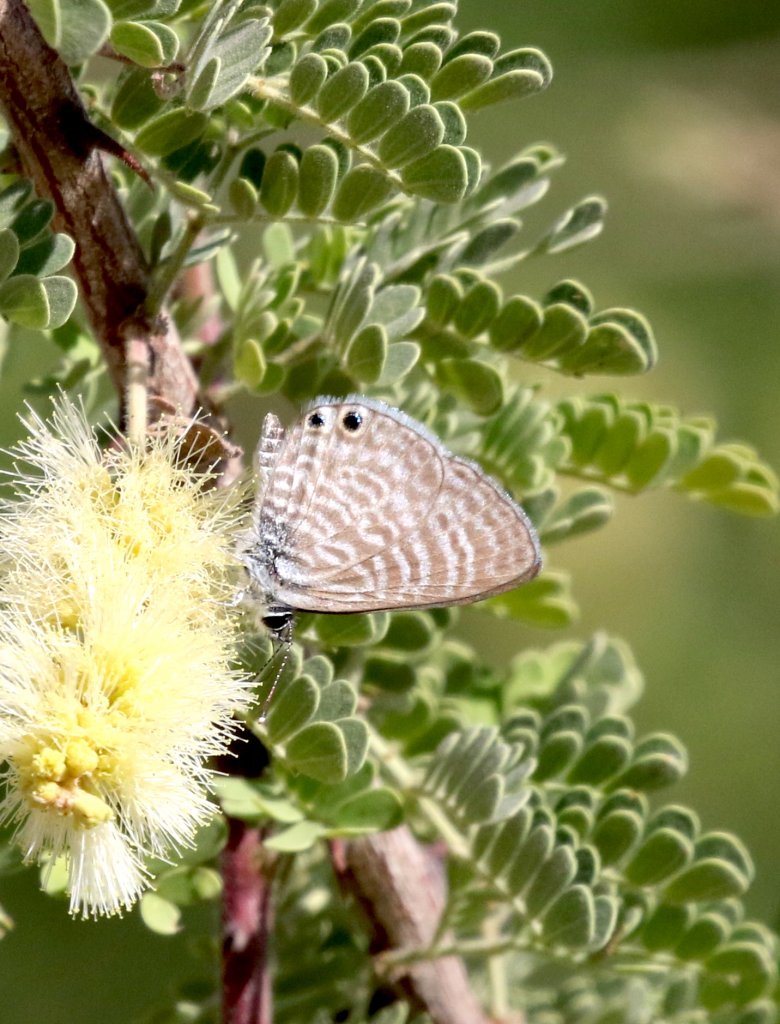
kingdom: Animalia
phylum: Arthropoda
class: Insecta
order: Lepidoptera
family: Lycaenidae
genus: Leptotes
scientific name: Leptotes marina
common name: Marine Blue
